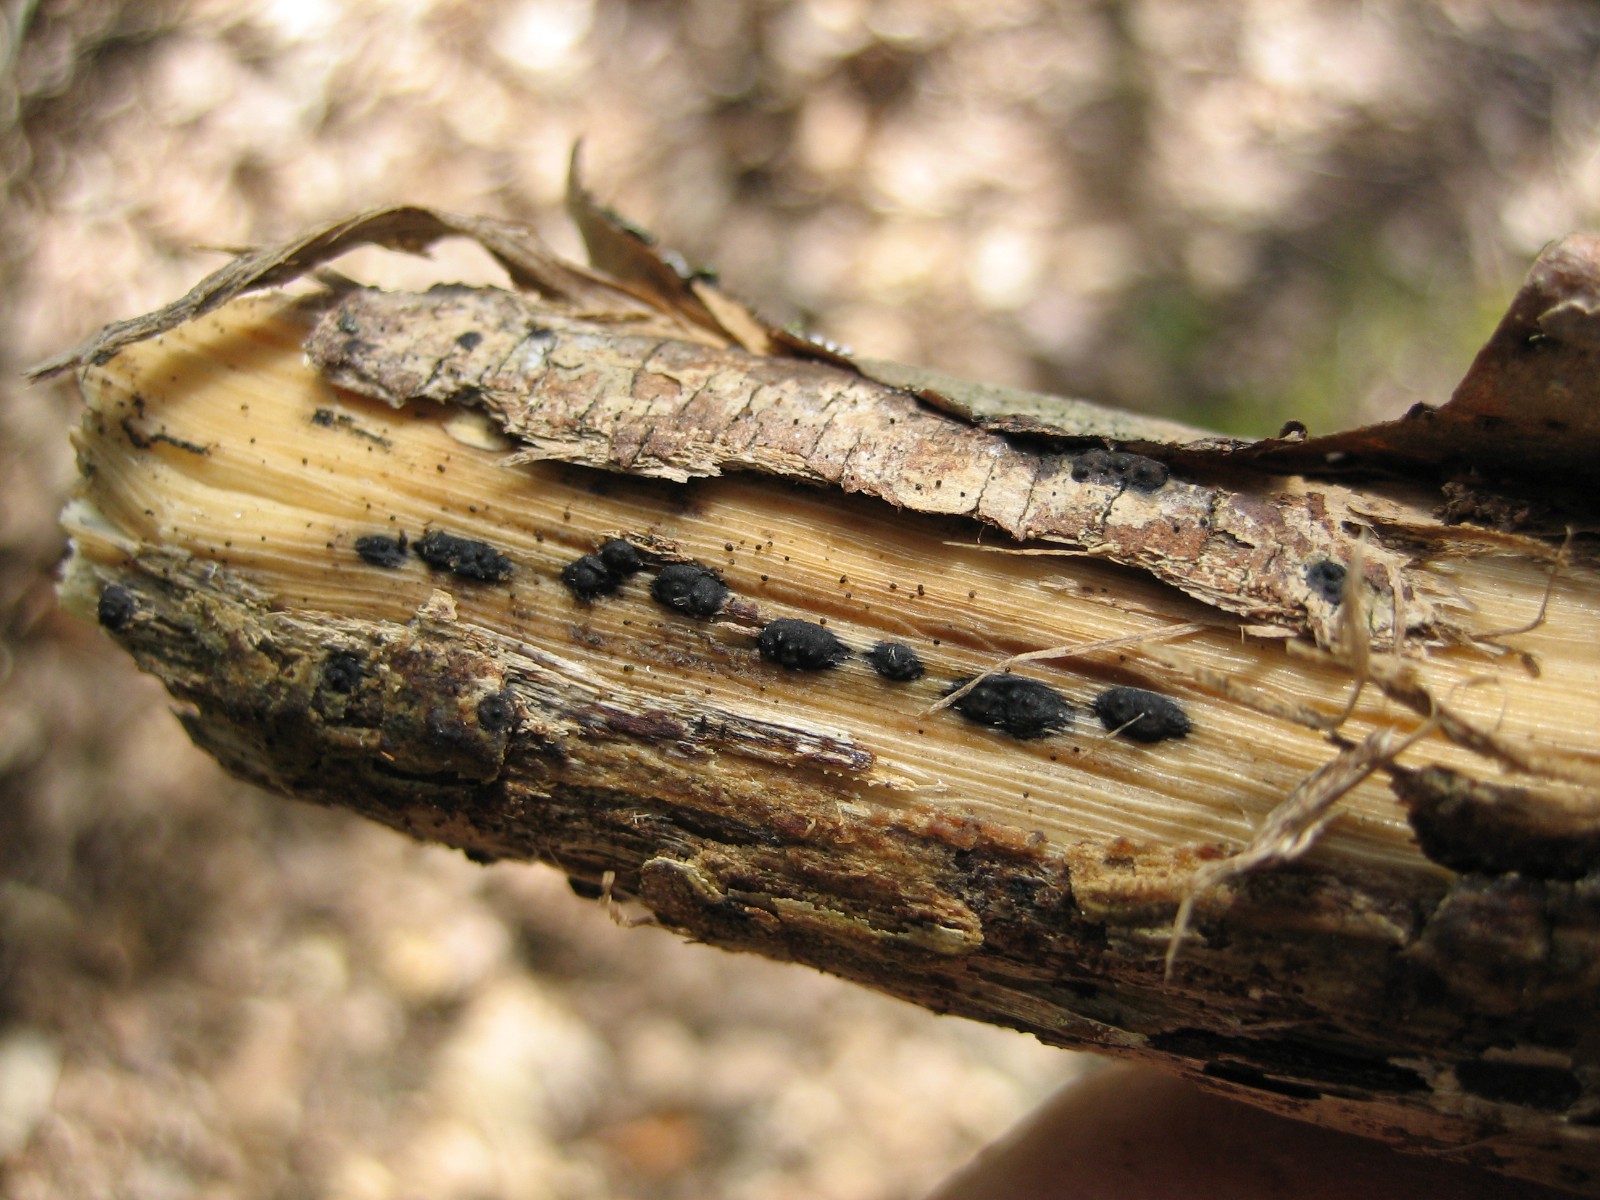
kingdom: Fungi
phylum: Ascomycota
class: Sordariomycetes
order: Xylariales
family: Xylariaceae
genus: Nemania
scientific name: Nemania
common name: kuldyne
